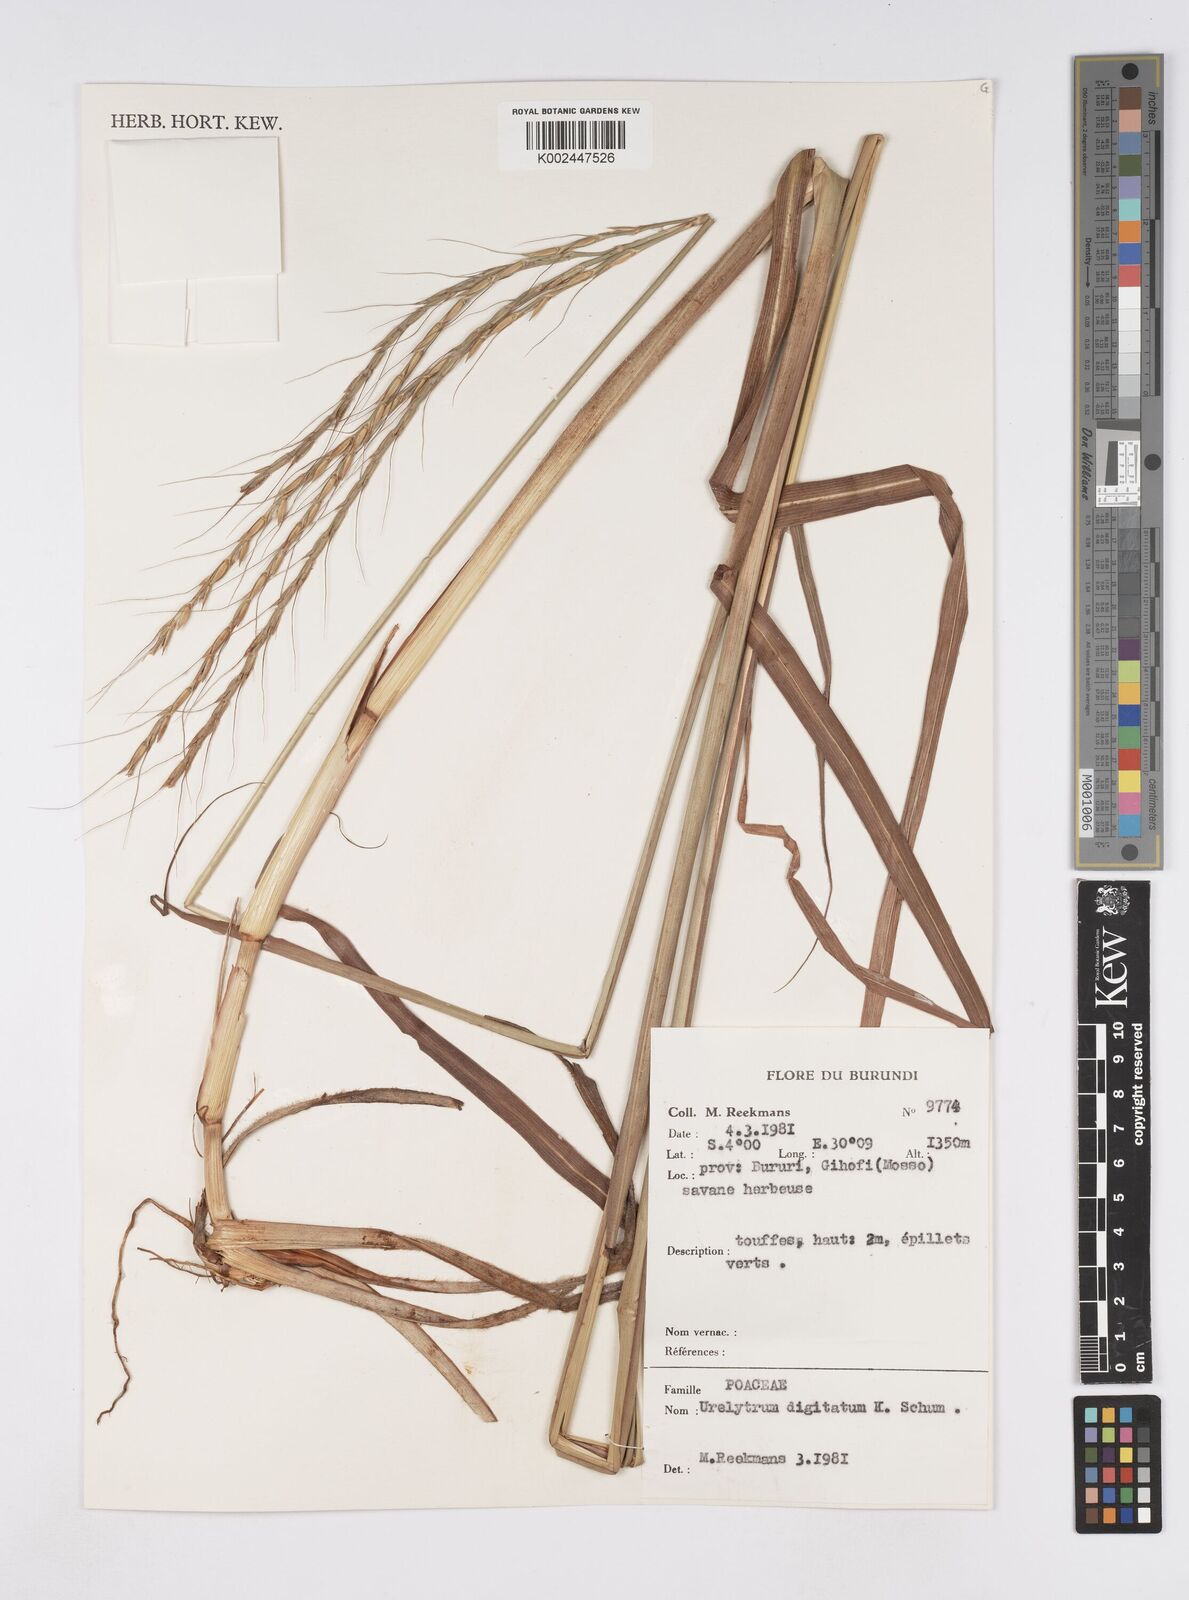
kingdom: Plantae
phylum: Tracheophyta
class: Liliopsida
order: Poales
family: Poaceae
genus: Urelytrum
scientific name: Urelytrum digitatum
